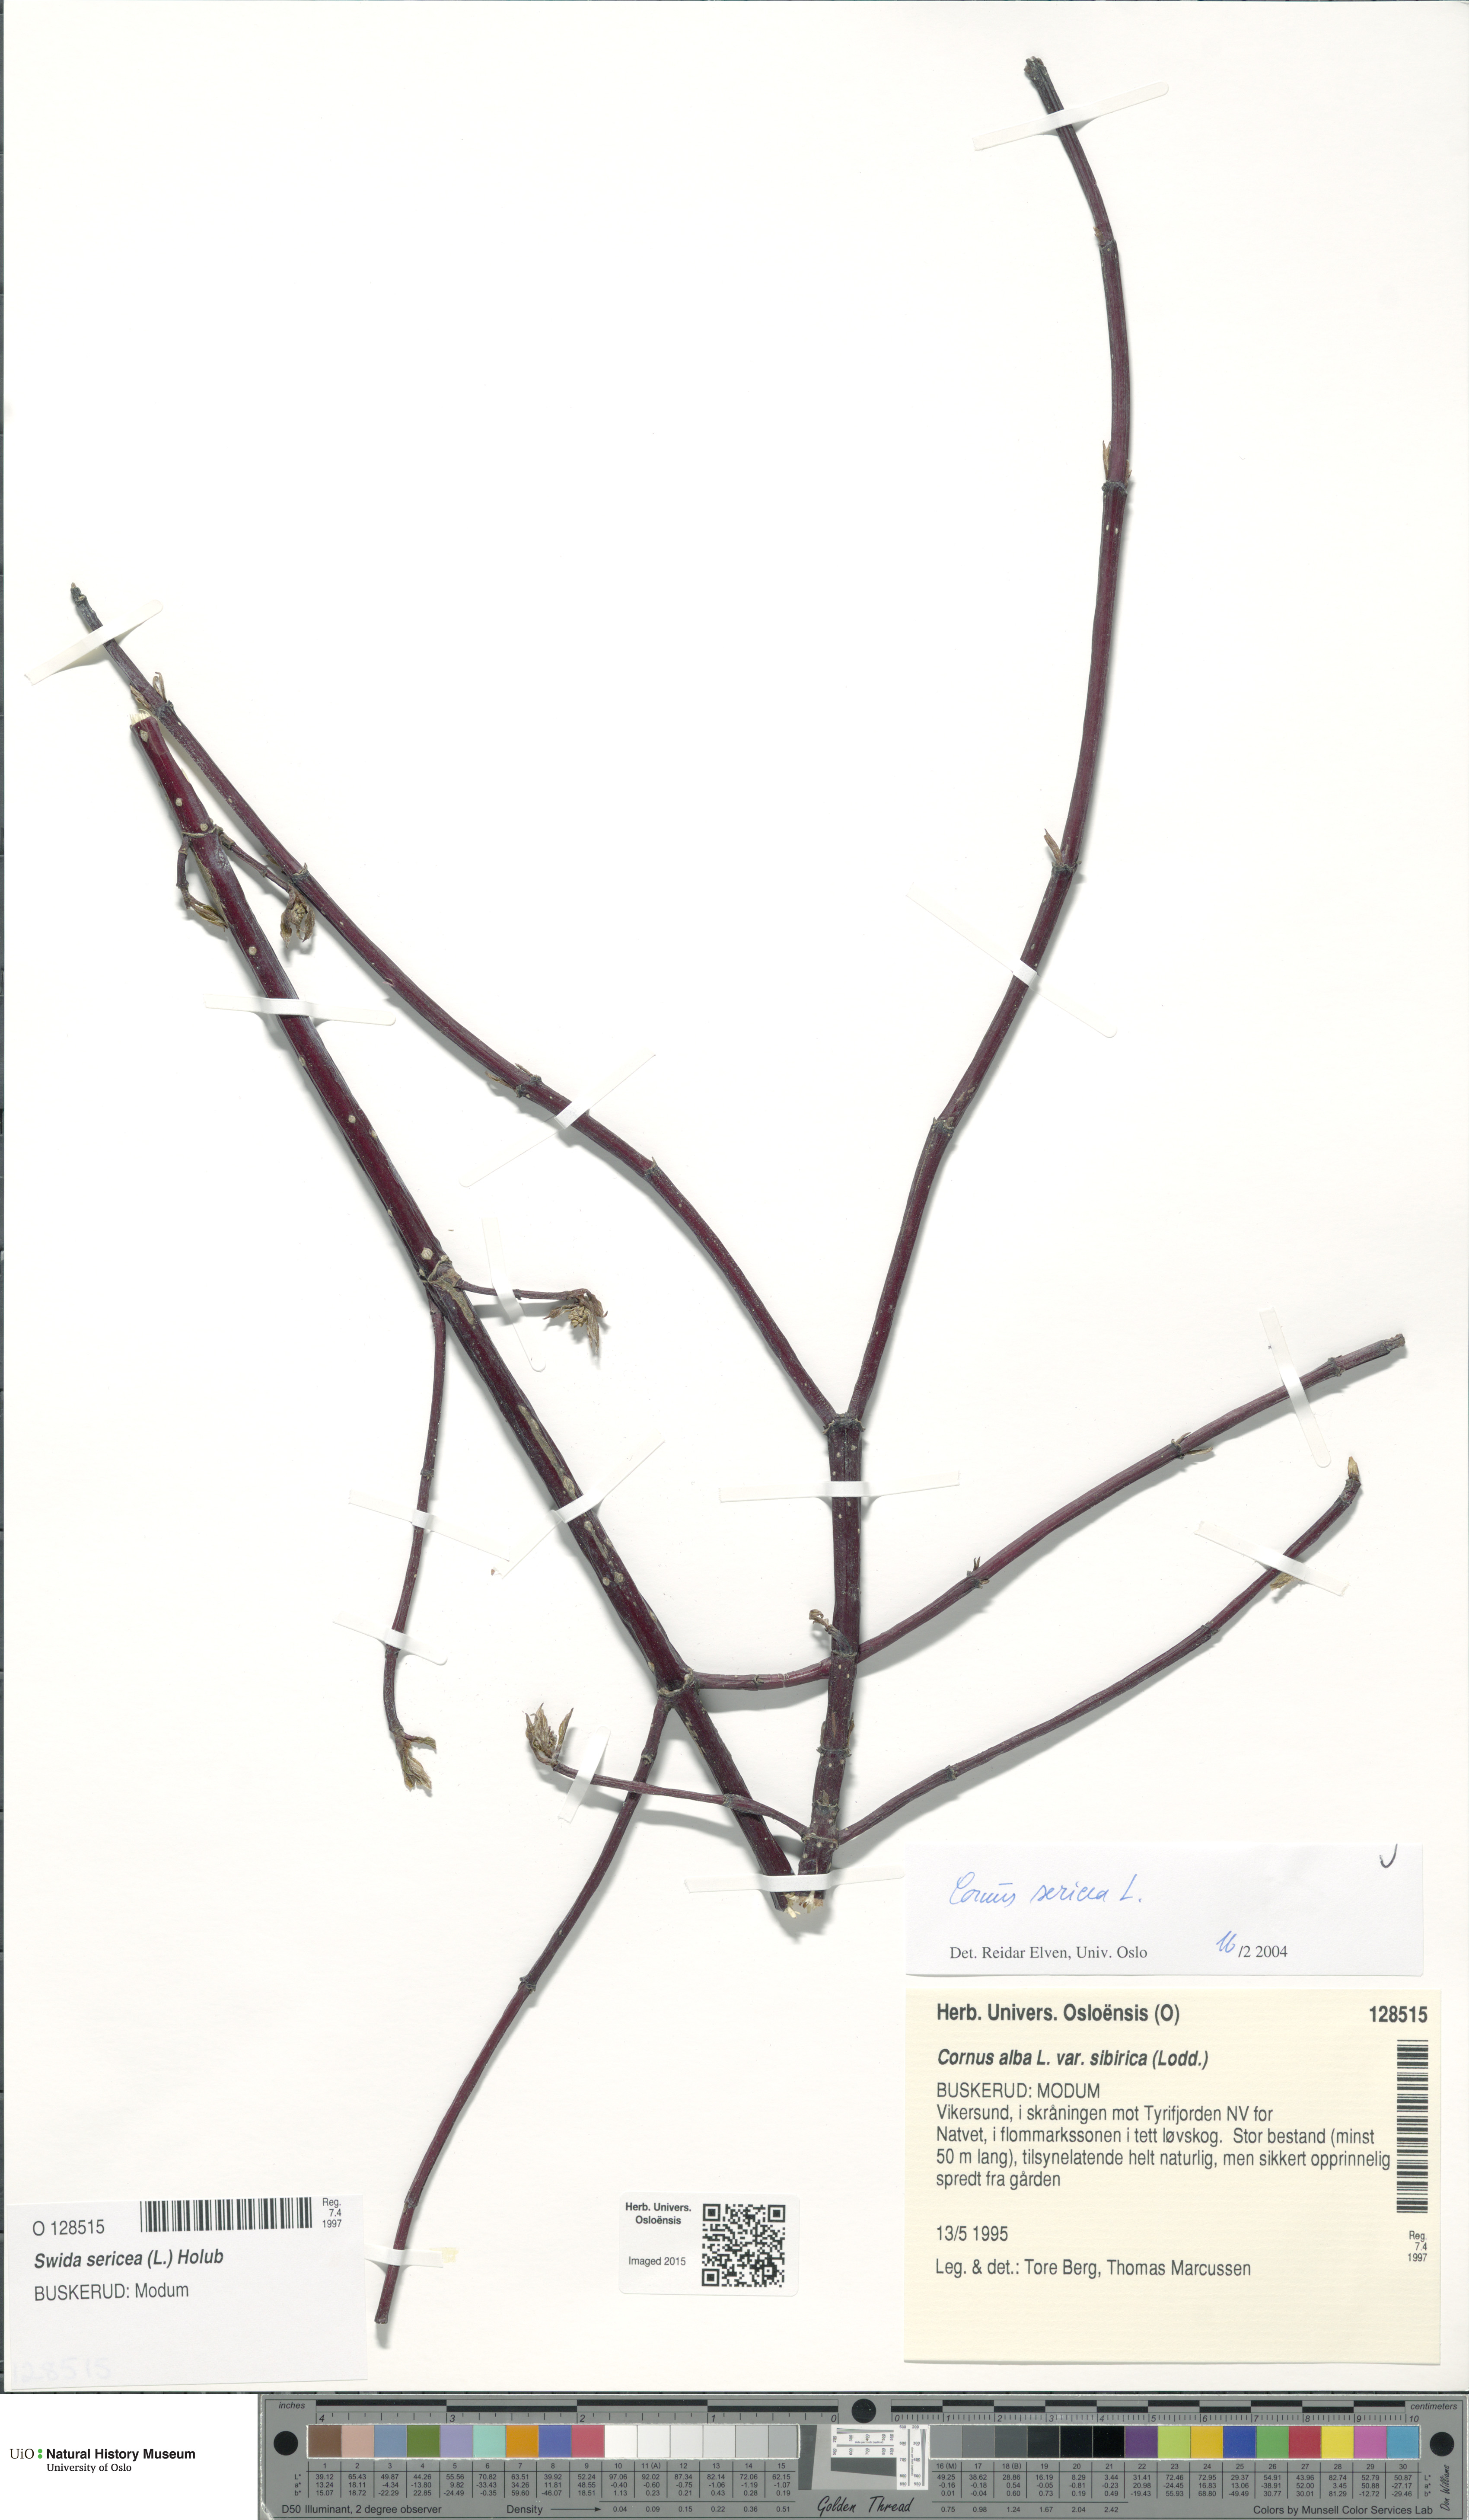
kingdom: Plantae
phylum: Tracheophyta
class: Magnoliopsida
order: Cornales
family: Cornaceae
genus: Cornus
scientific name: Cornus sericea
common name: Red-osier dogwood
